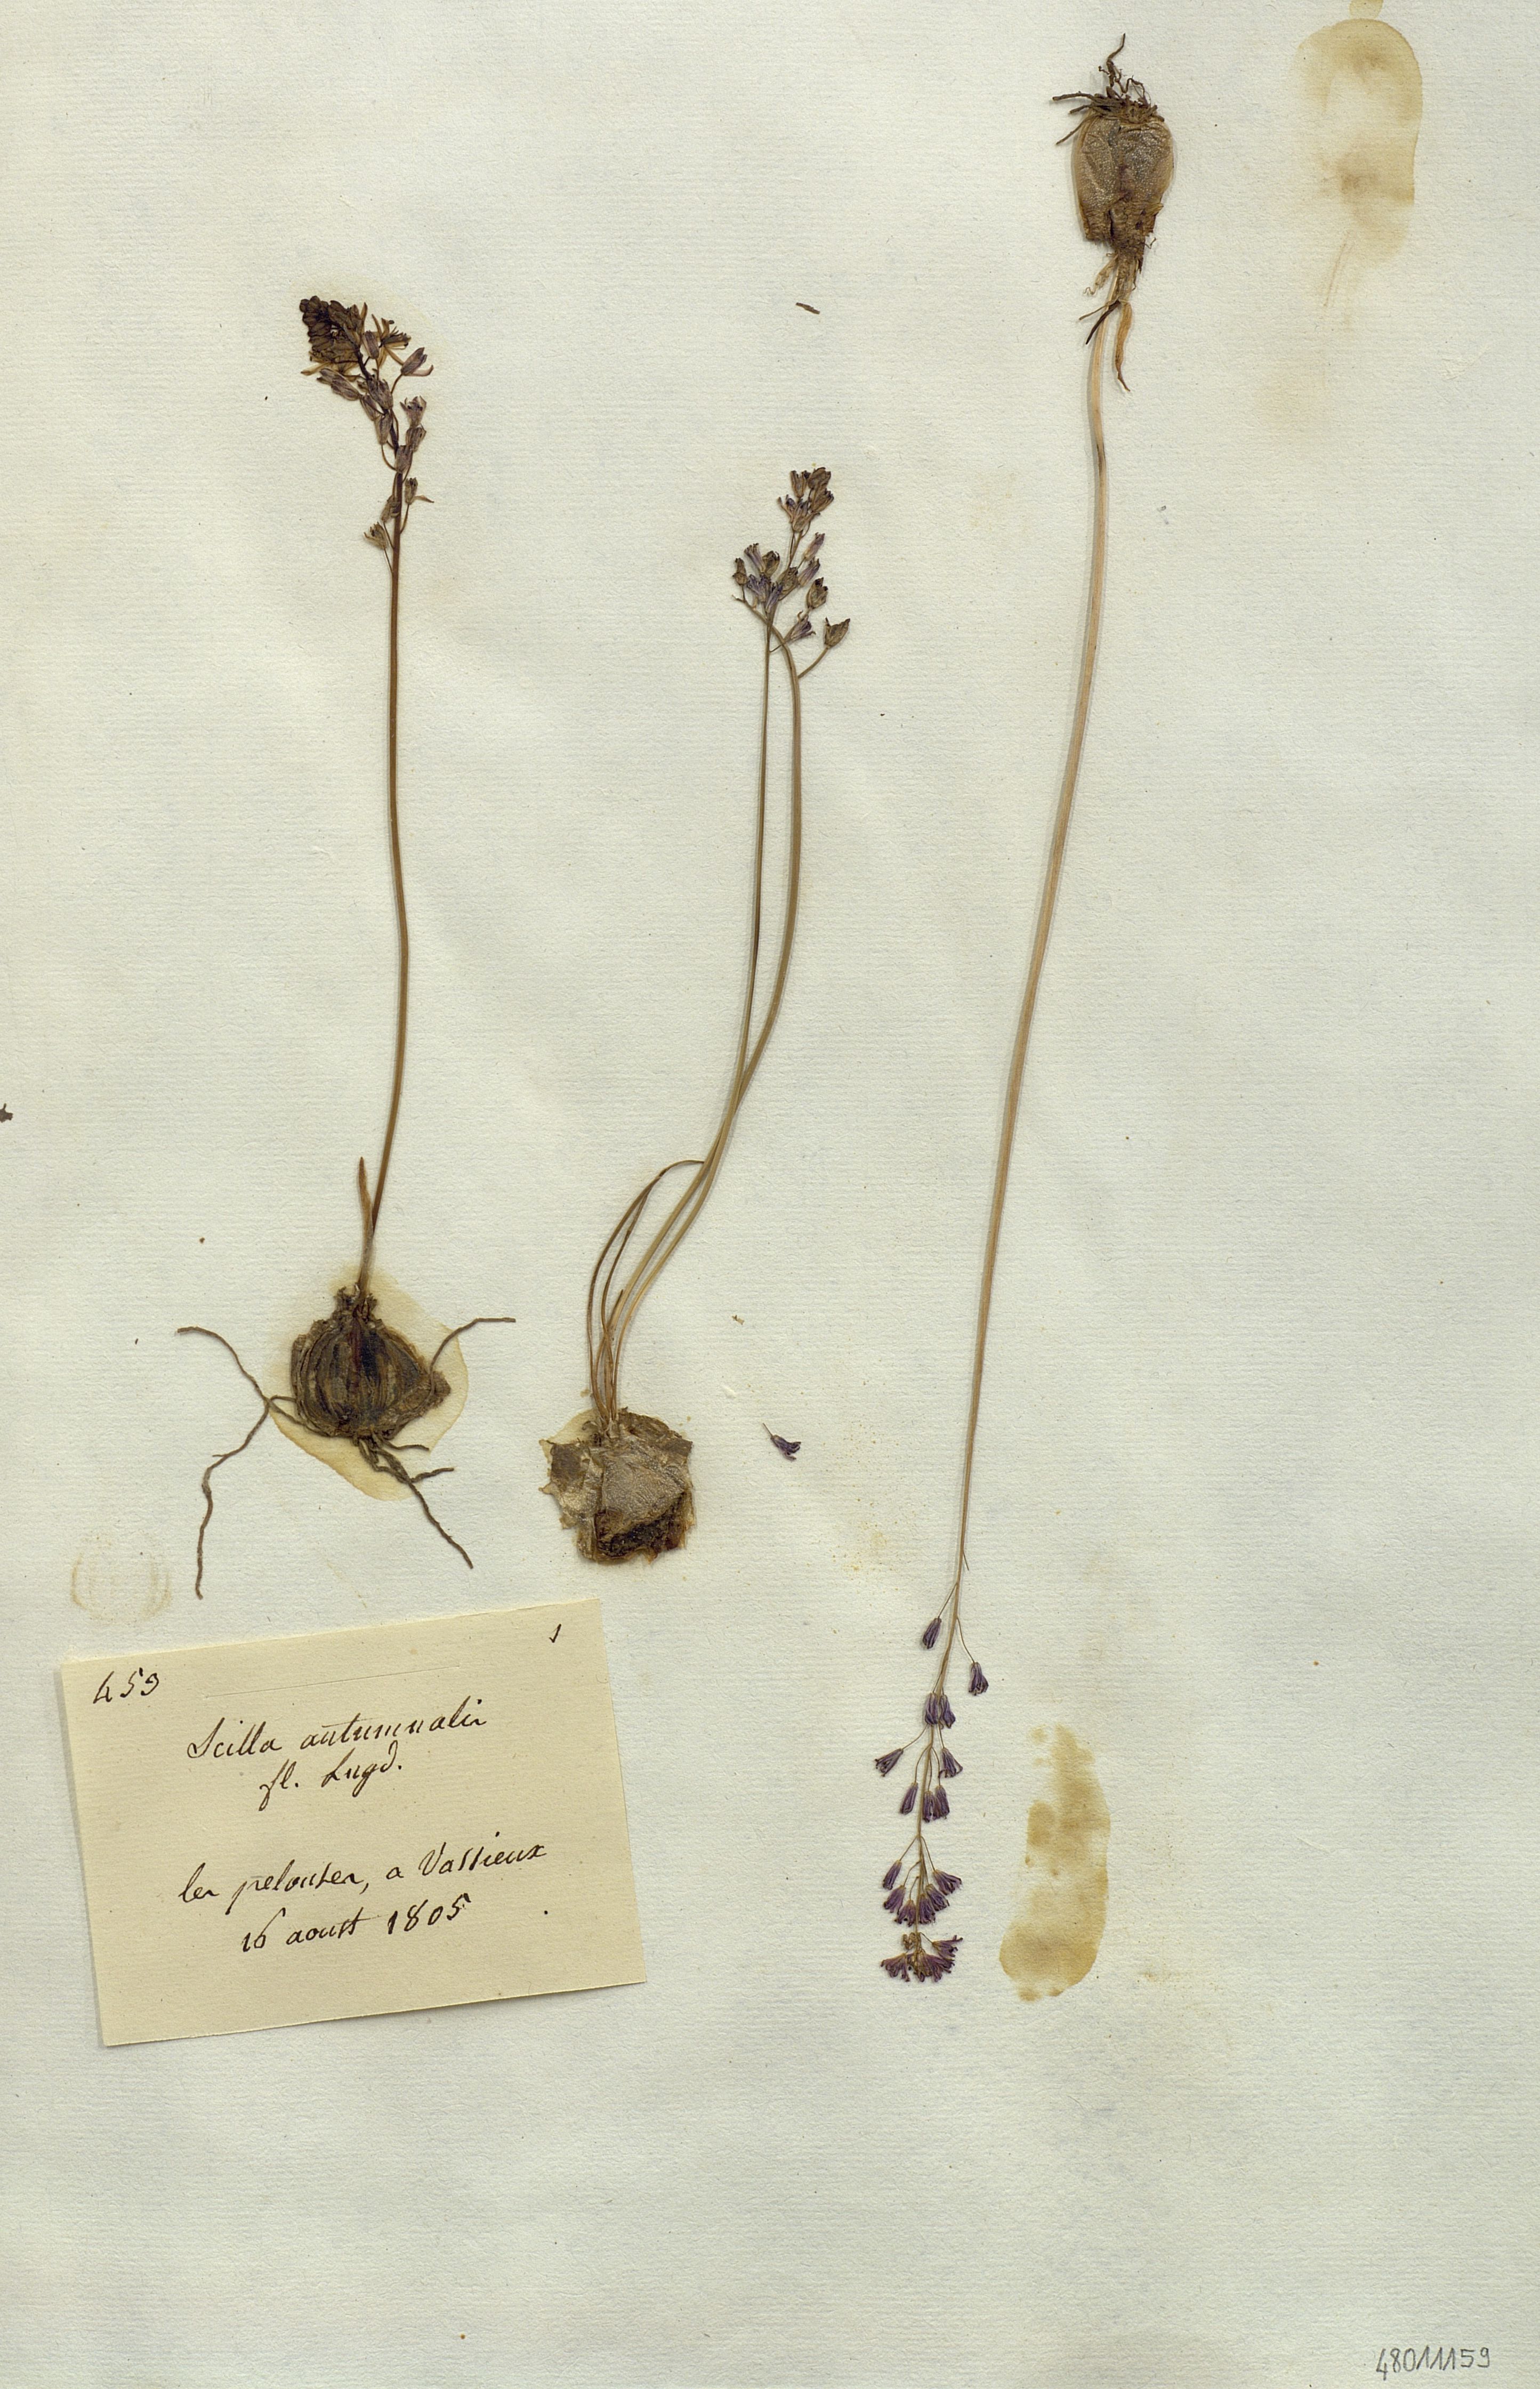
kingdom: Plantae
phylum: Tracheophyta
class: Liliopsida
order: Liliales
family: Liliaceae
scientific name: Liliaceae
